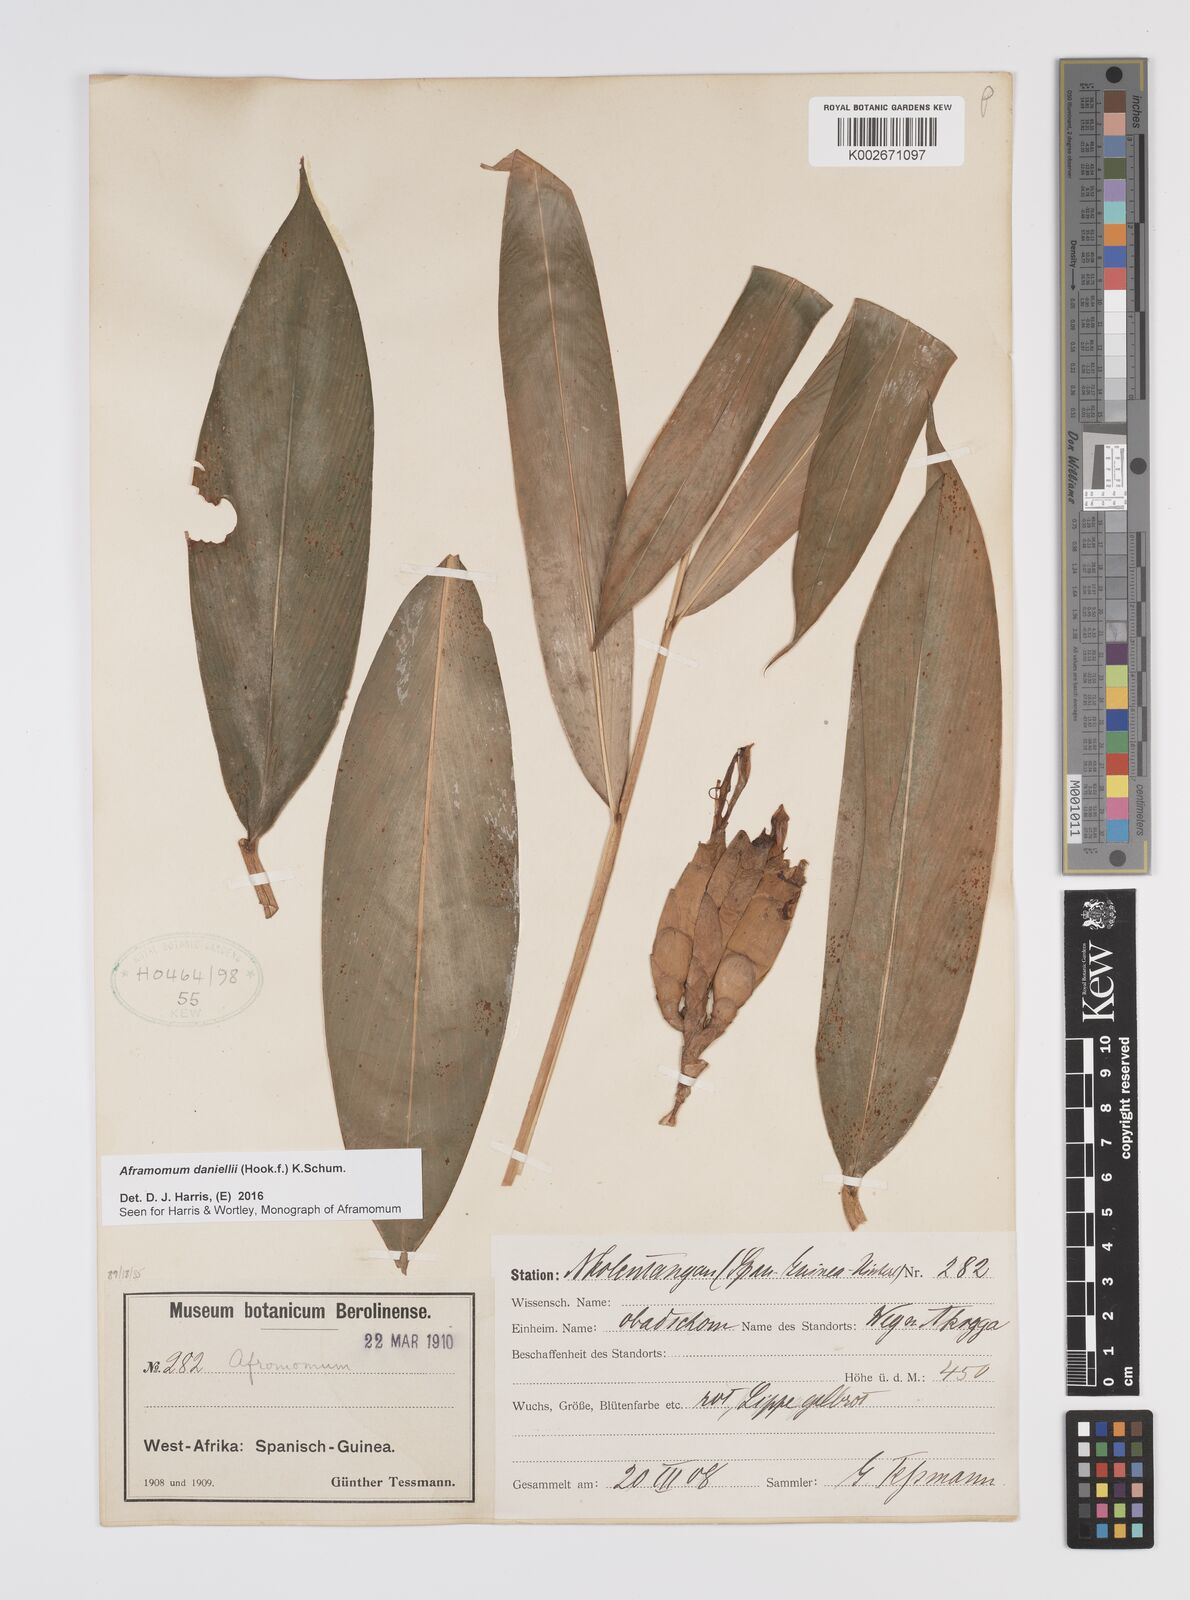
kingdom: Plantae
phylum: Tracheophyta
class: Liliopsida
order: Zingiberales
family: Zingiberaceae
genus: Aframomum
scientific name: Aframomum daniellii
